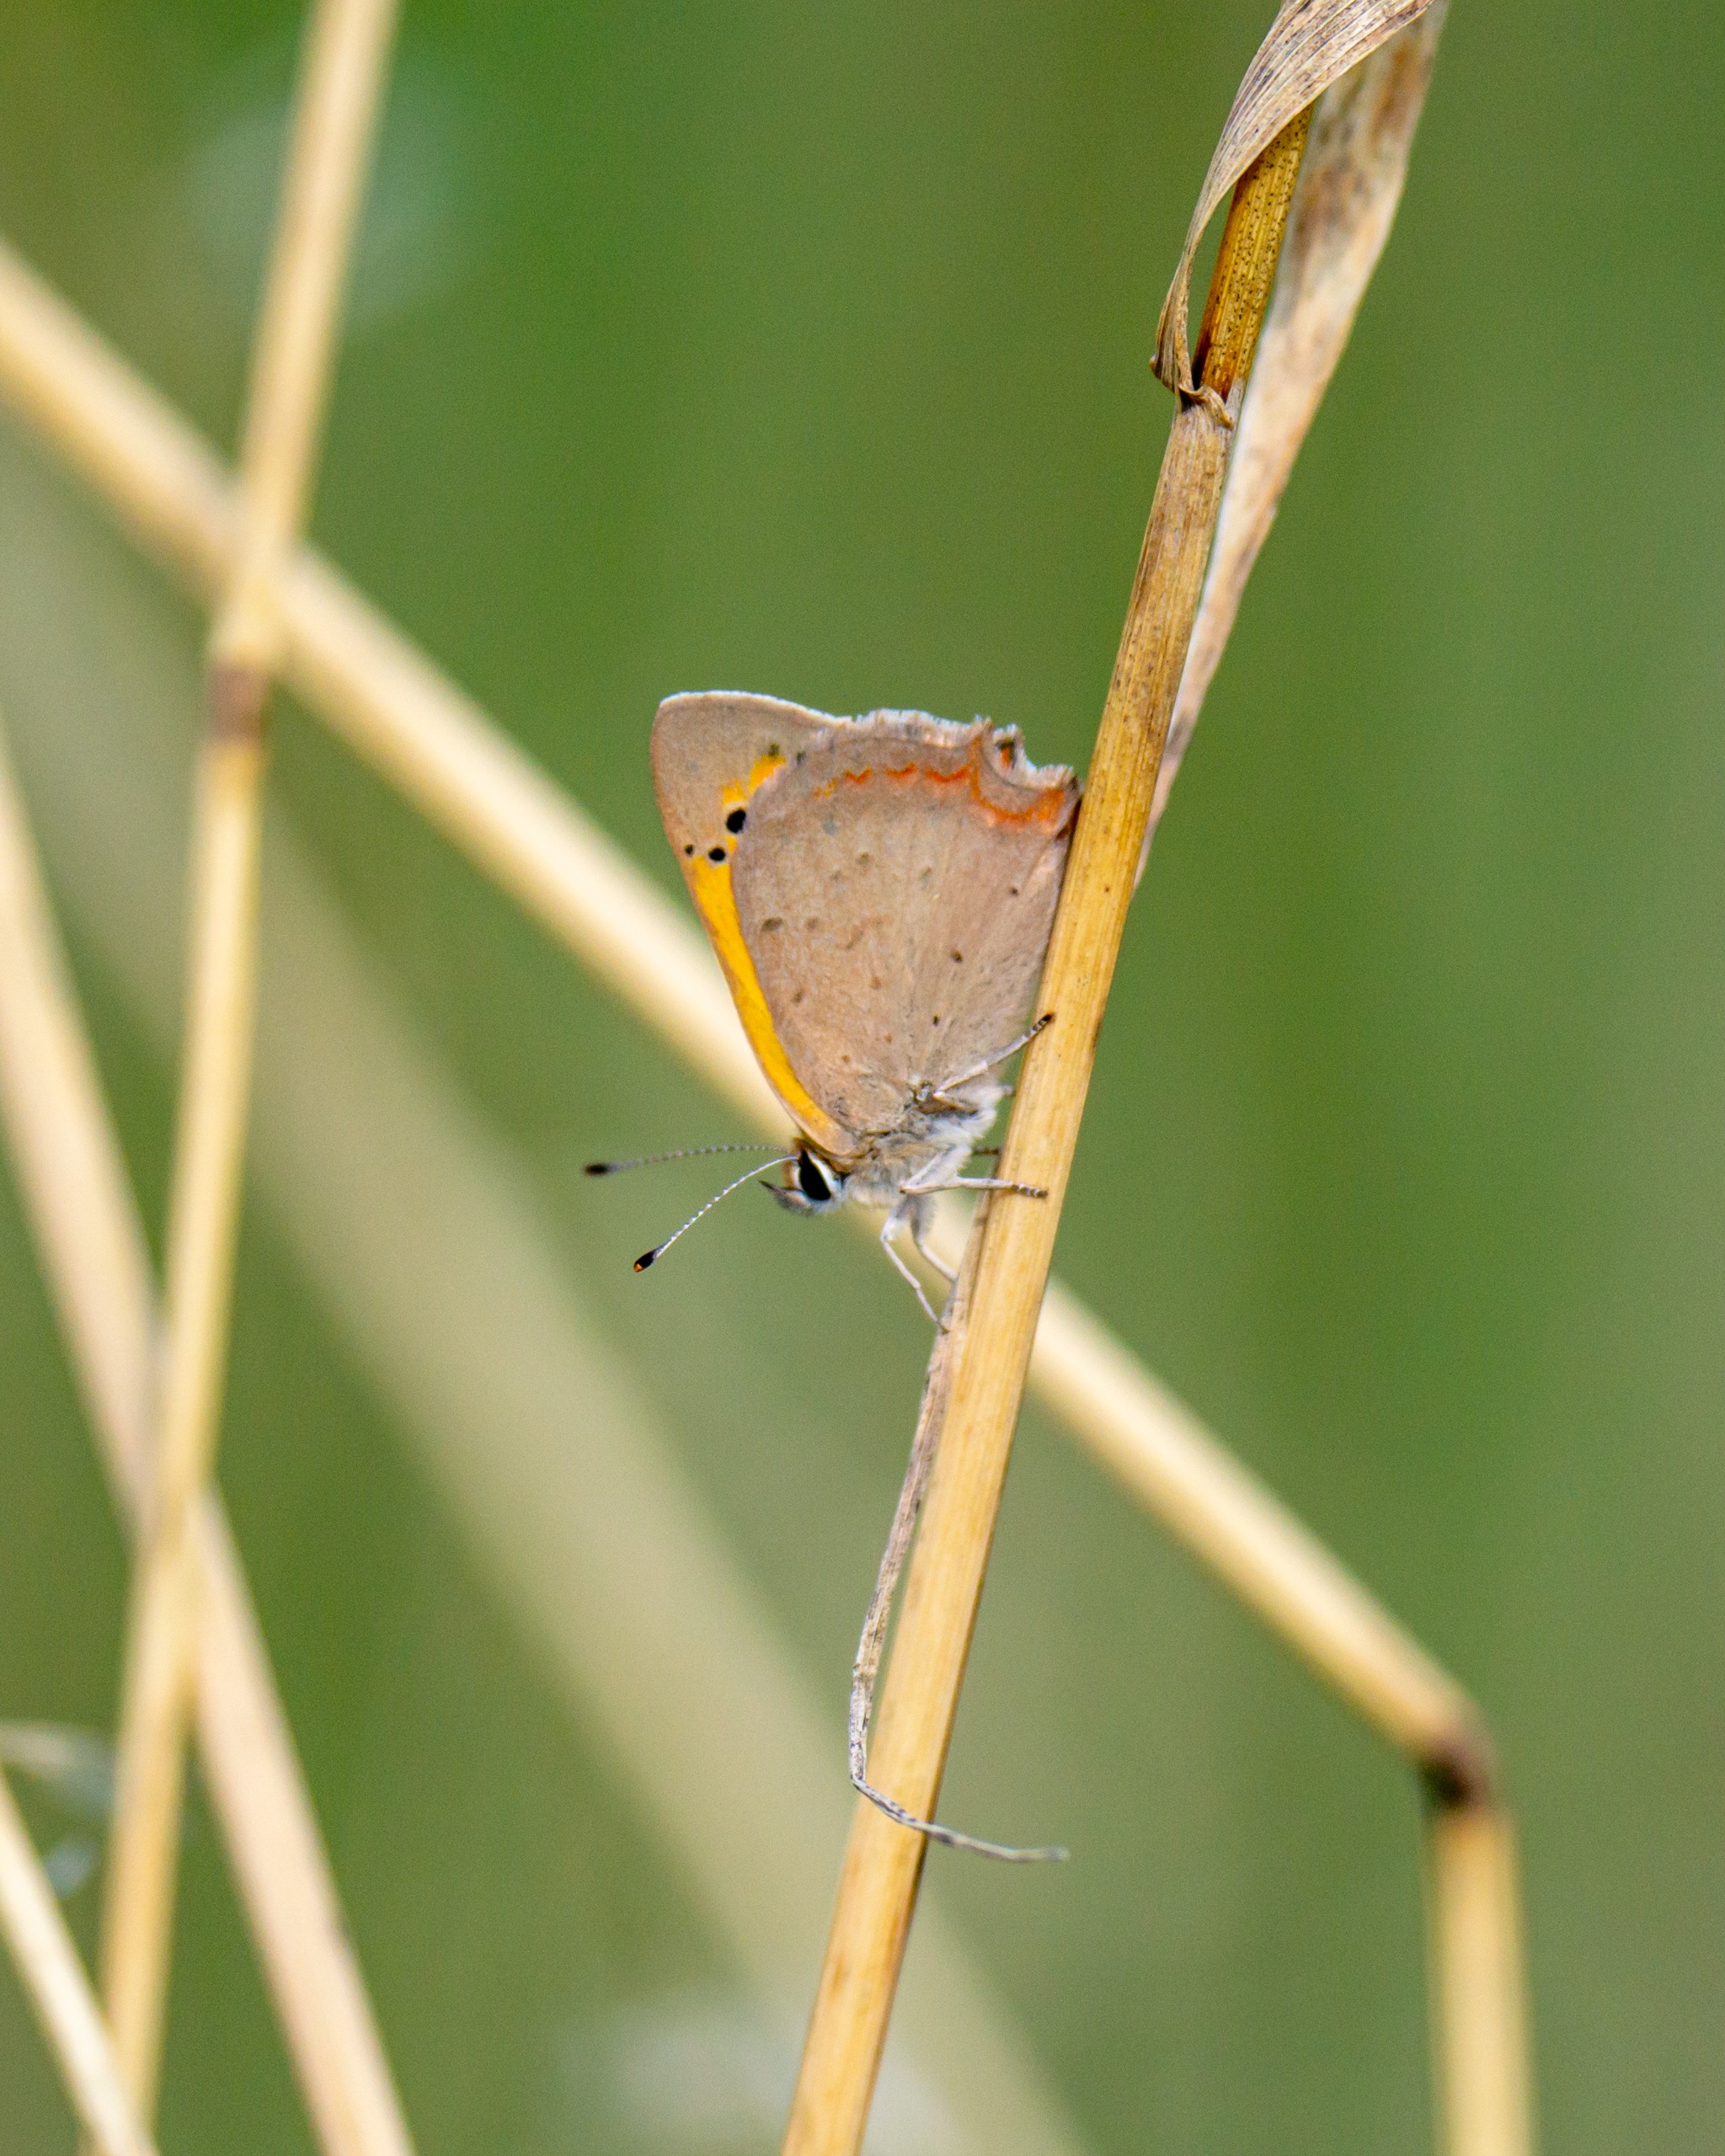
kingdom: Animalia
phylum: Arthropoda
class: Insecta
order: Lepidoptera
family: Lycaenidae
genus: Lycaena
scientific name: Lycaena phlaeas
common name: Lille ildfugl
